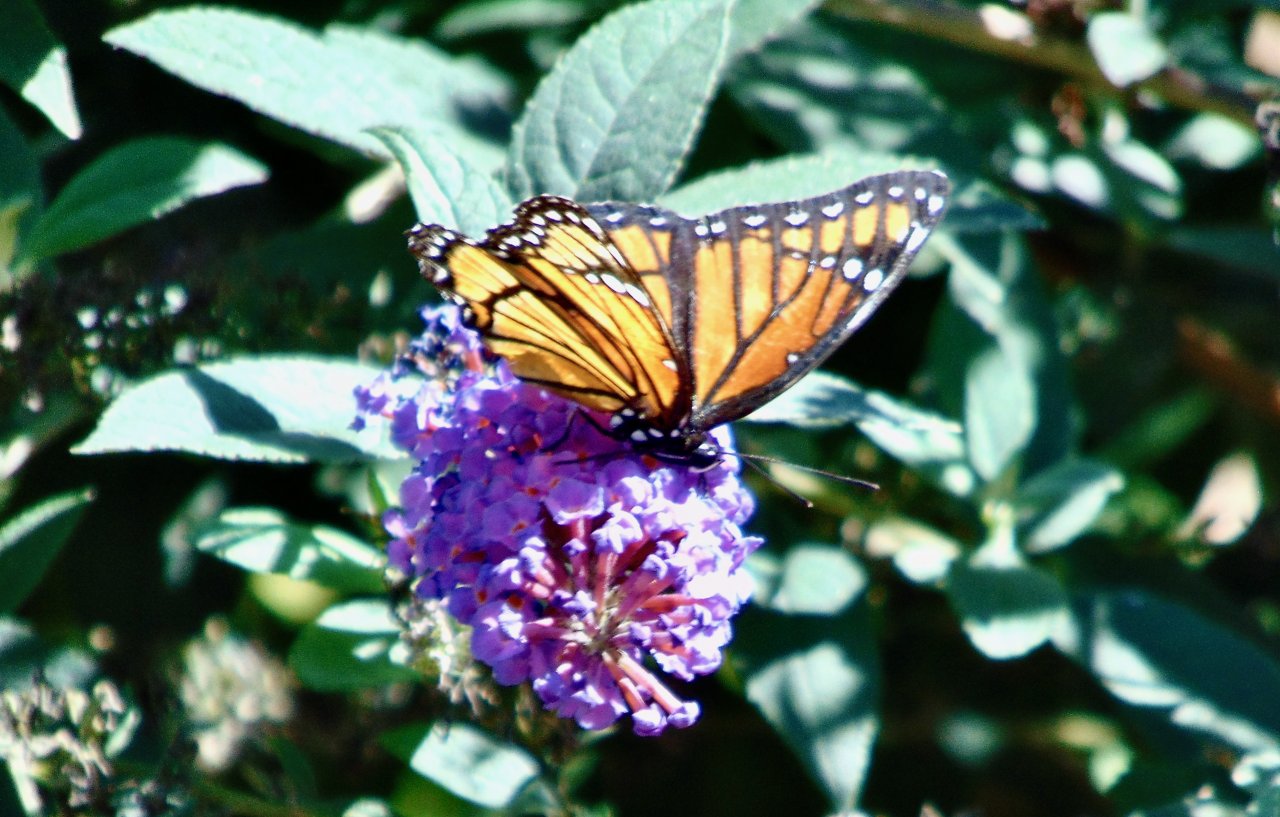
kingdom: Animalia
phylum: Arthropoda
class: Insecta
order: Lepidoptera
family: Nymphalidae
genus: Limenitis
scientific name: Limenitis archippus
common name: Viceroy
